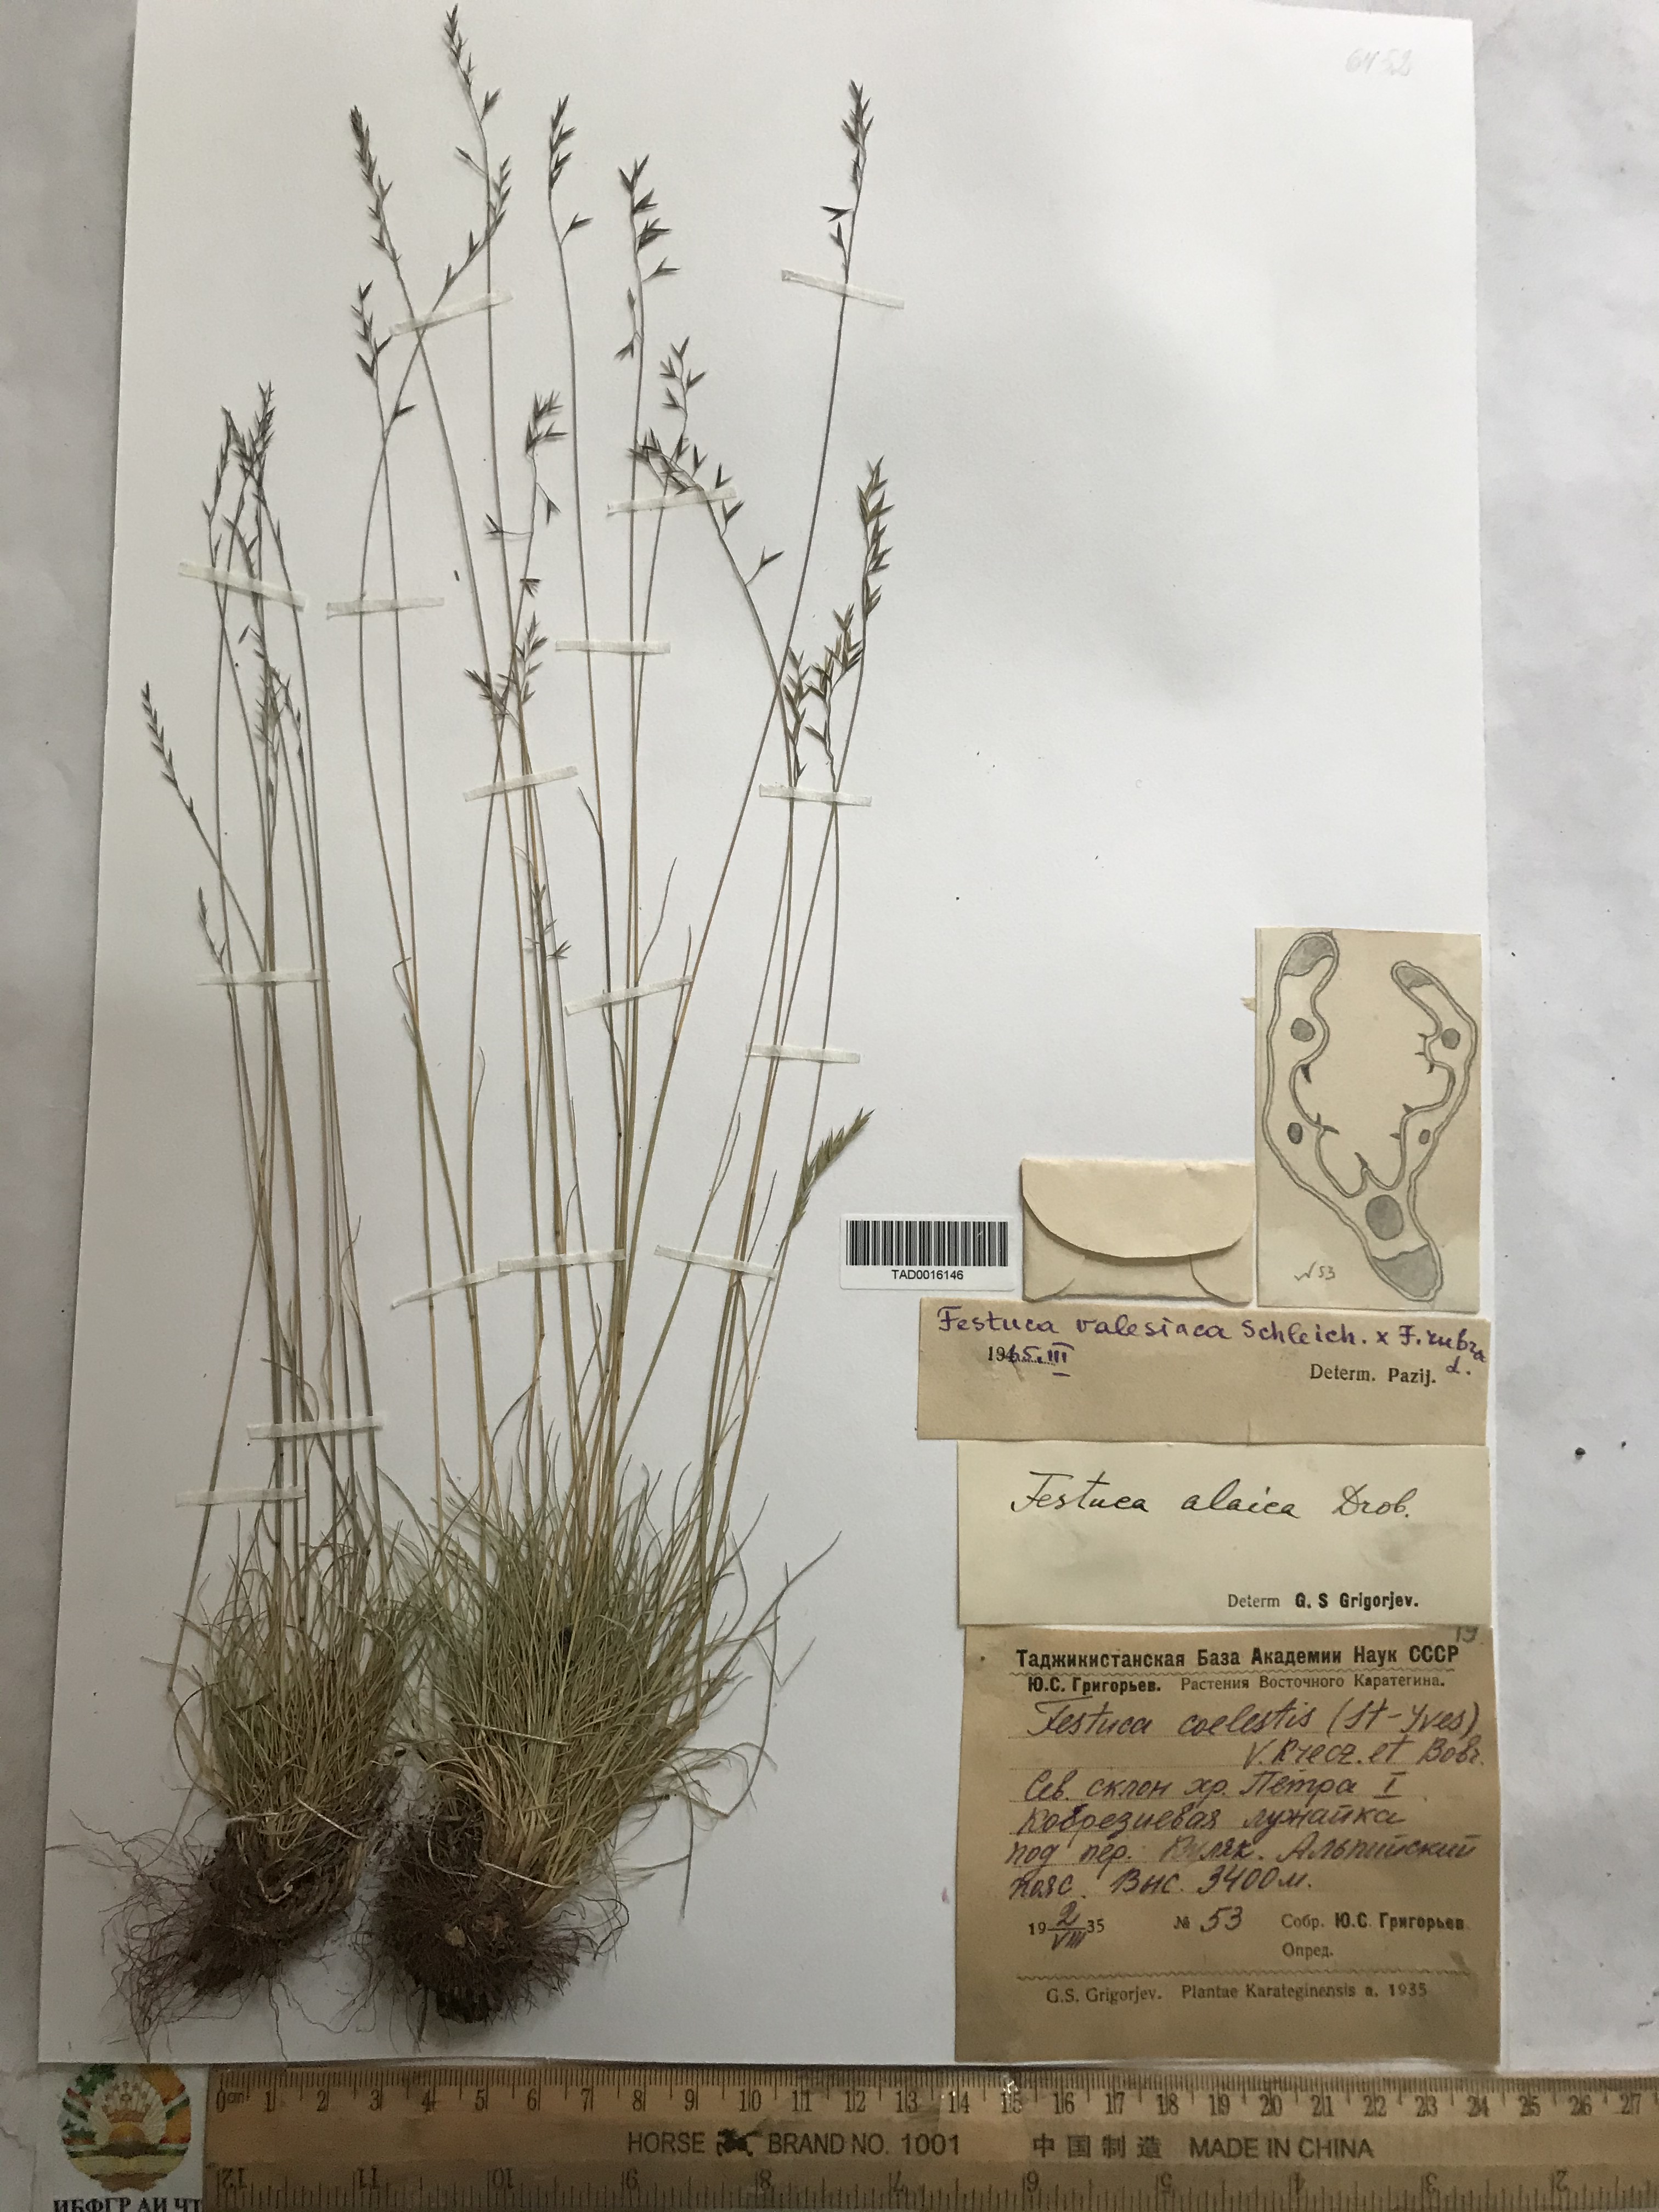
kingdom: Plantae
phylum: Tracheophyta
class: Liliopsida
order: Poales
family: Poaceae
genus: Festuca
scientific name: Festuca valesiaca
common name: Volga fescue
